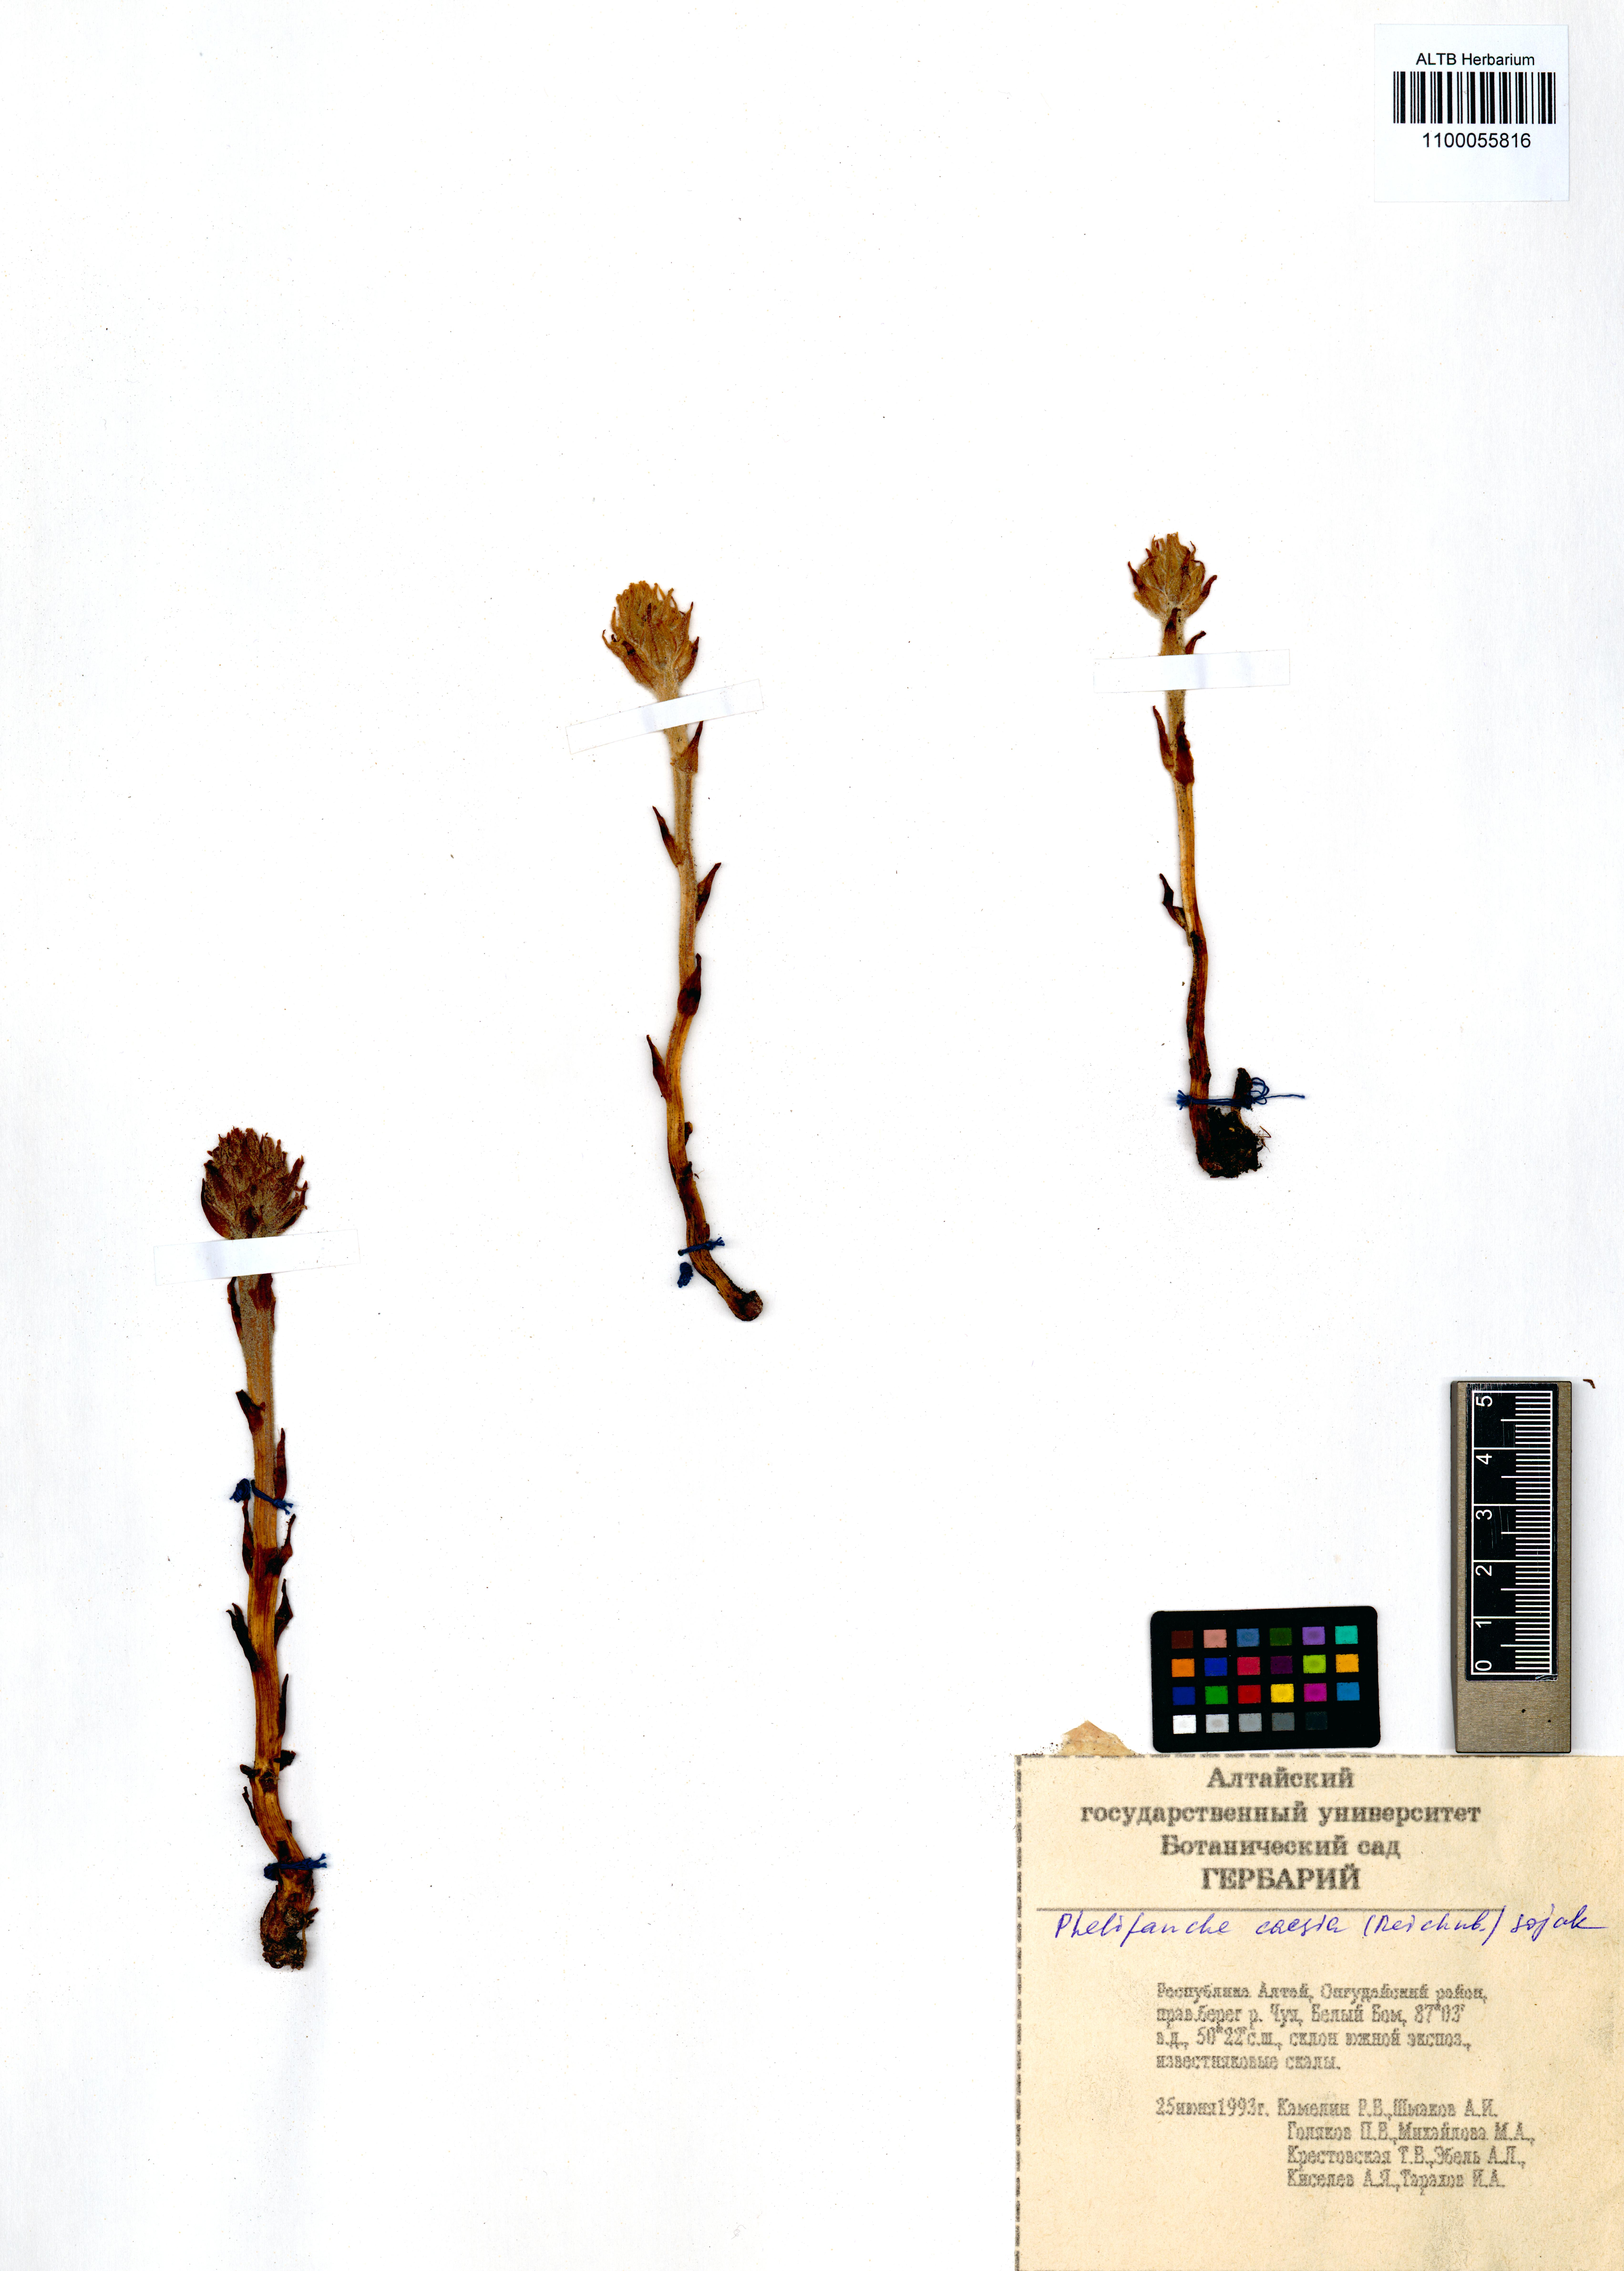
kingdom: Plantae
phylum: Tracheophyta
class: Magnoliopsida
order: Lamiales
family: Orobanchaceae
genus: Phelipanche
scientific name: Phelipanche caesia
